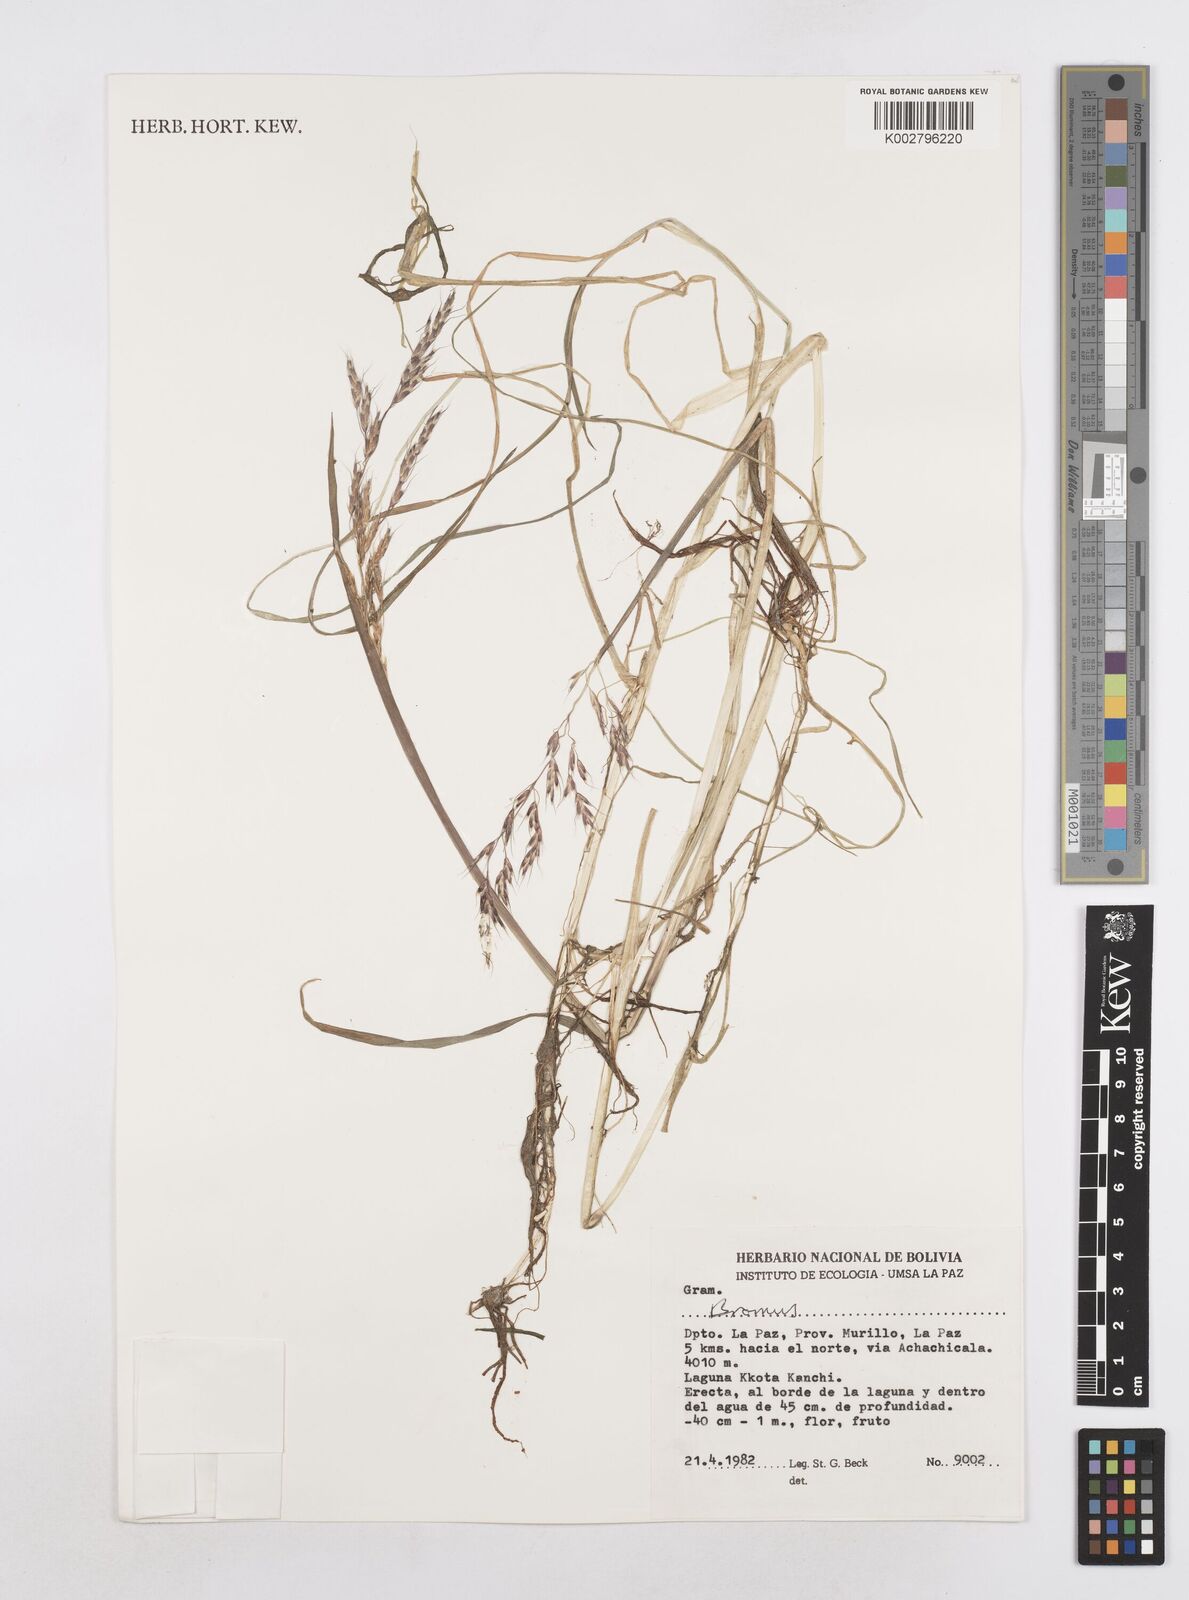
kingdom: Plantae
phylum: Tracheophyta
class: Liliopsida
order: Poales
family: Poaceae
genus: Amphibromus
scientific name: Amphibromus scabrivalvis
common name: Swamp wallaby grass
